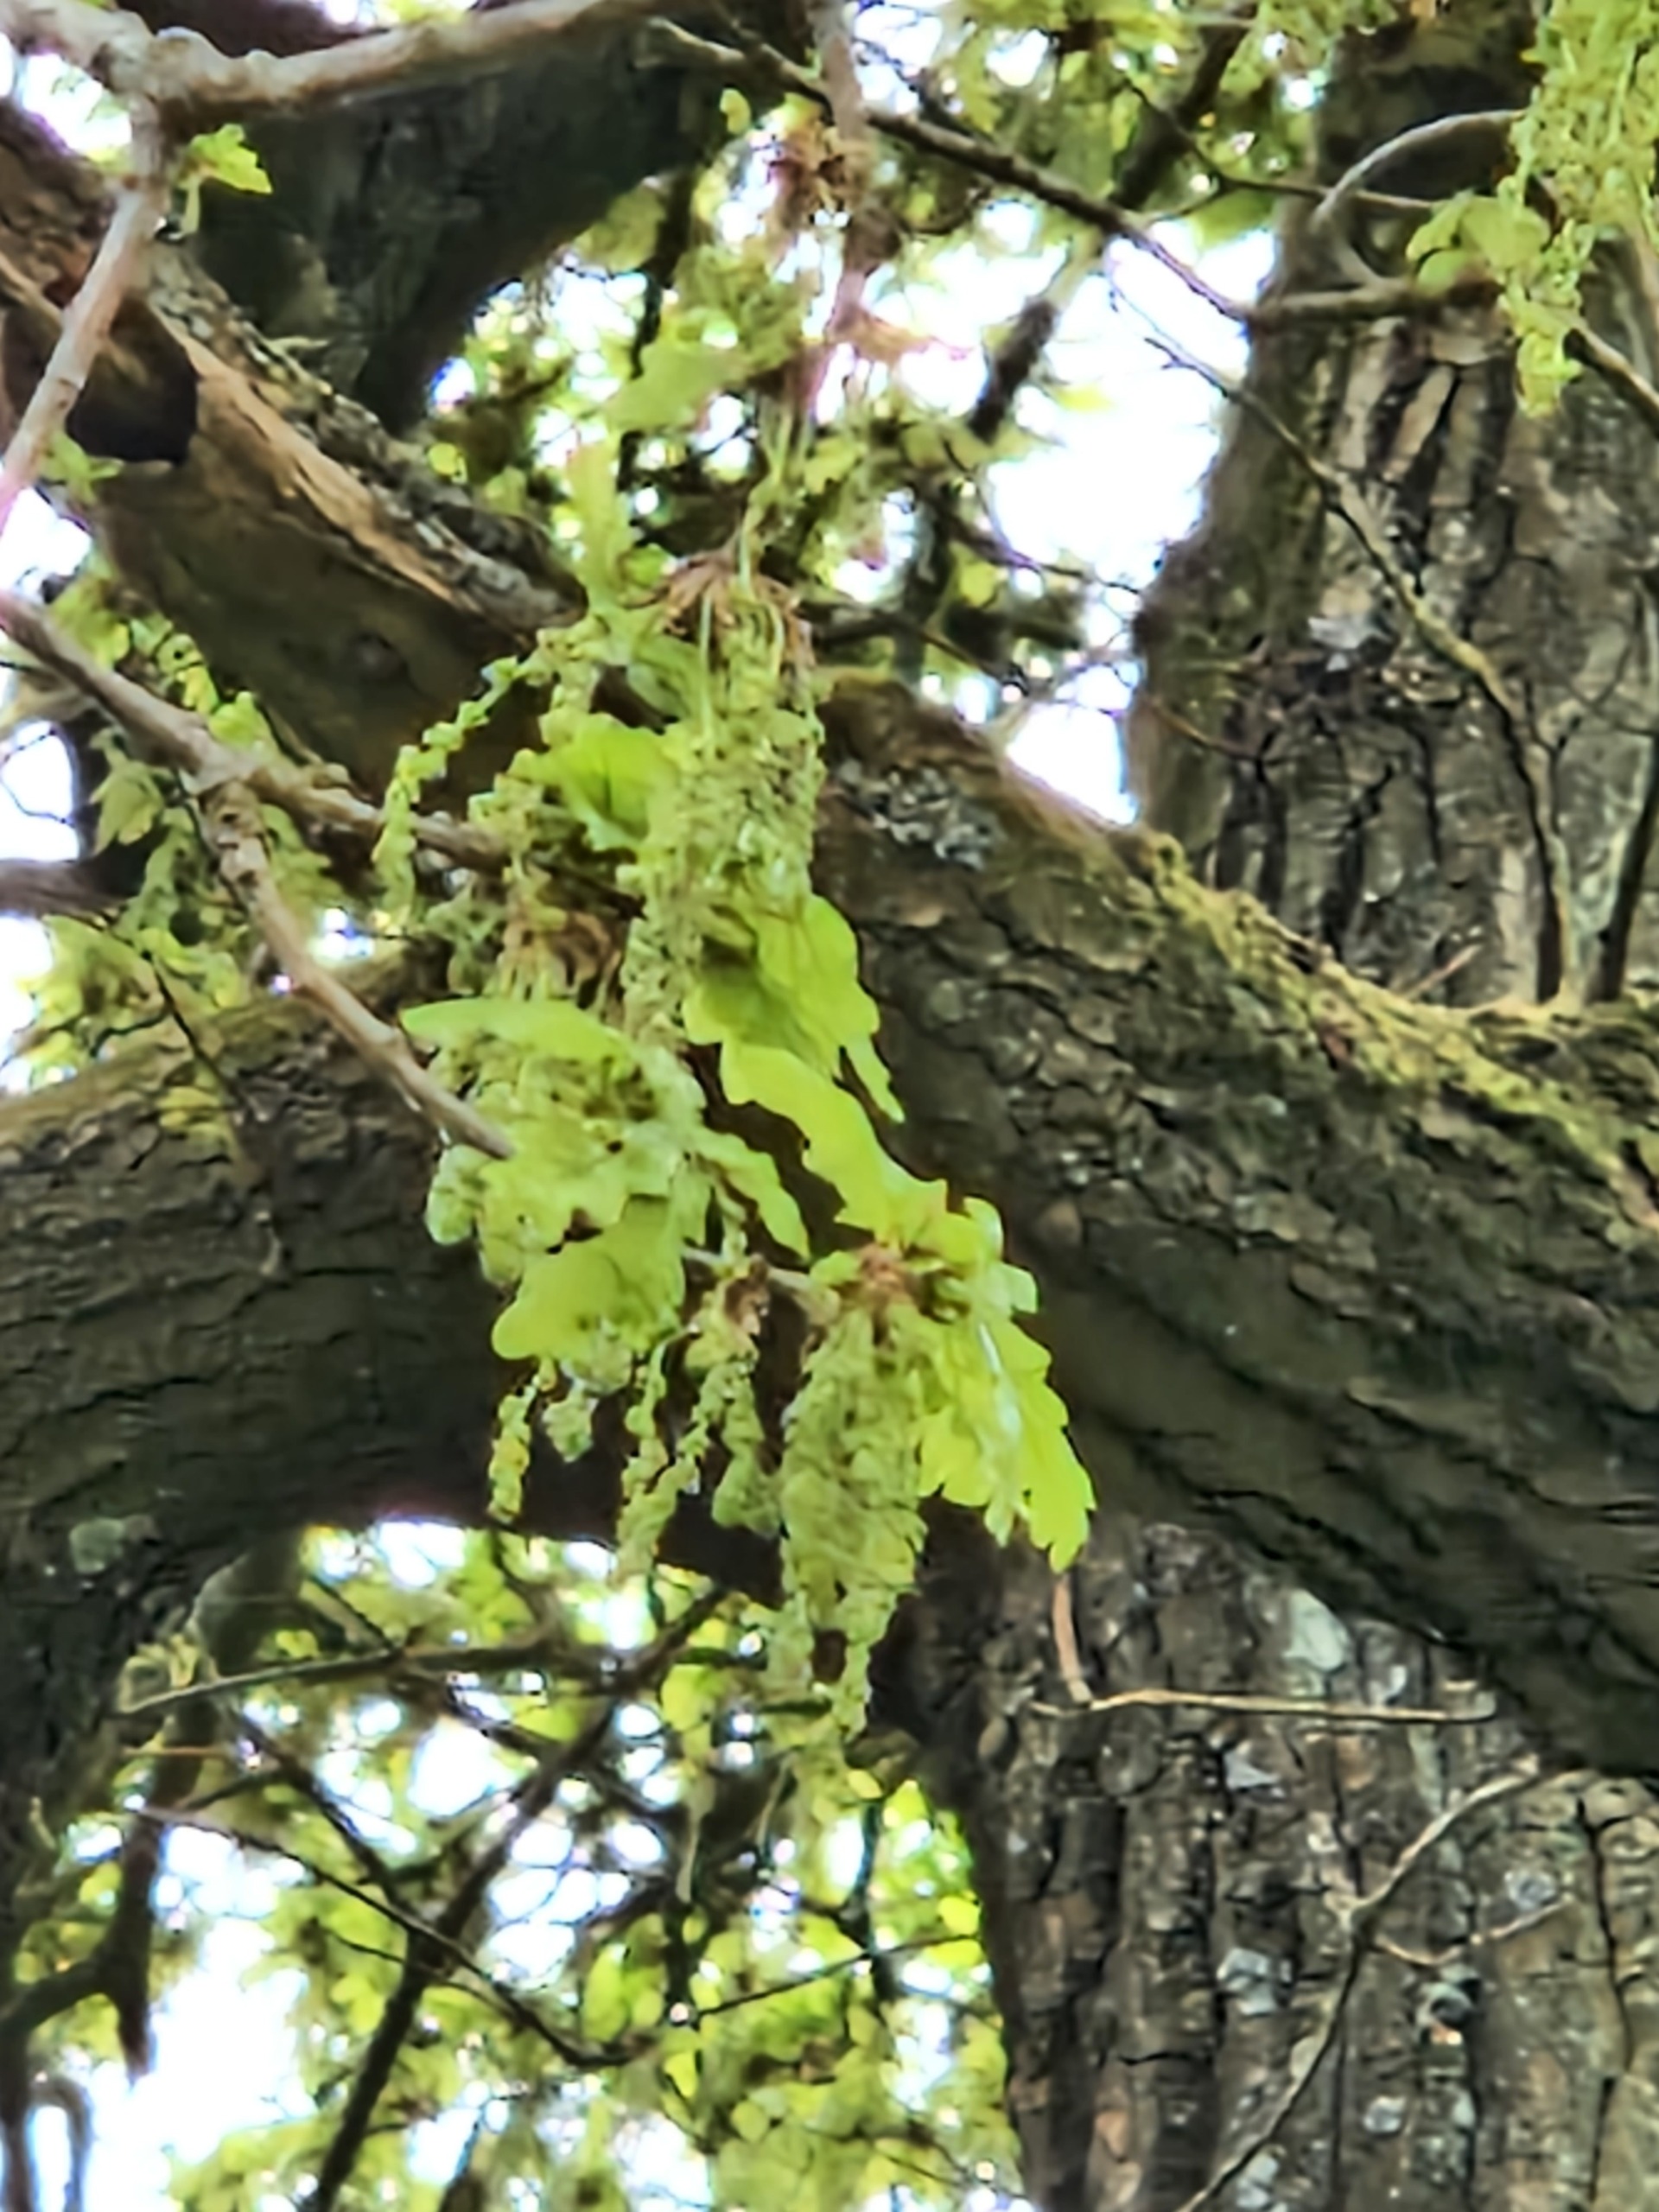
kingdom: Plantae
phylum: Tracheophyta
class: Magnoliopsida
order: Fagales
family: Fagaceae
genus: Quercus
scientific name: Quercus robur
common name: Stilk-eg/almindelig eg
